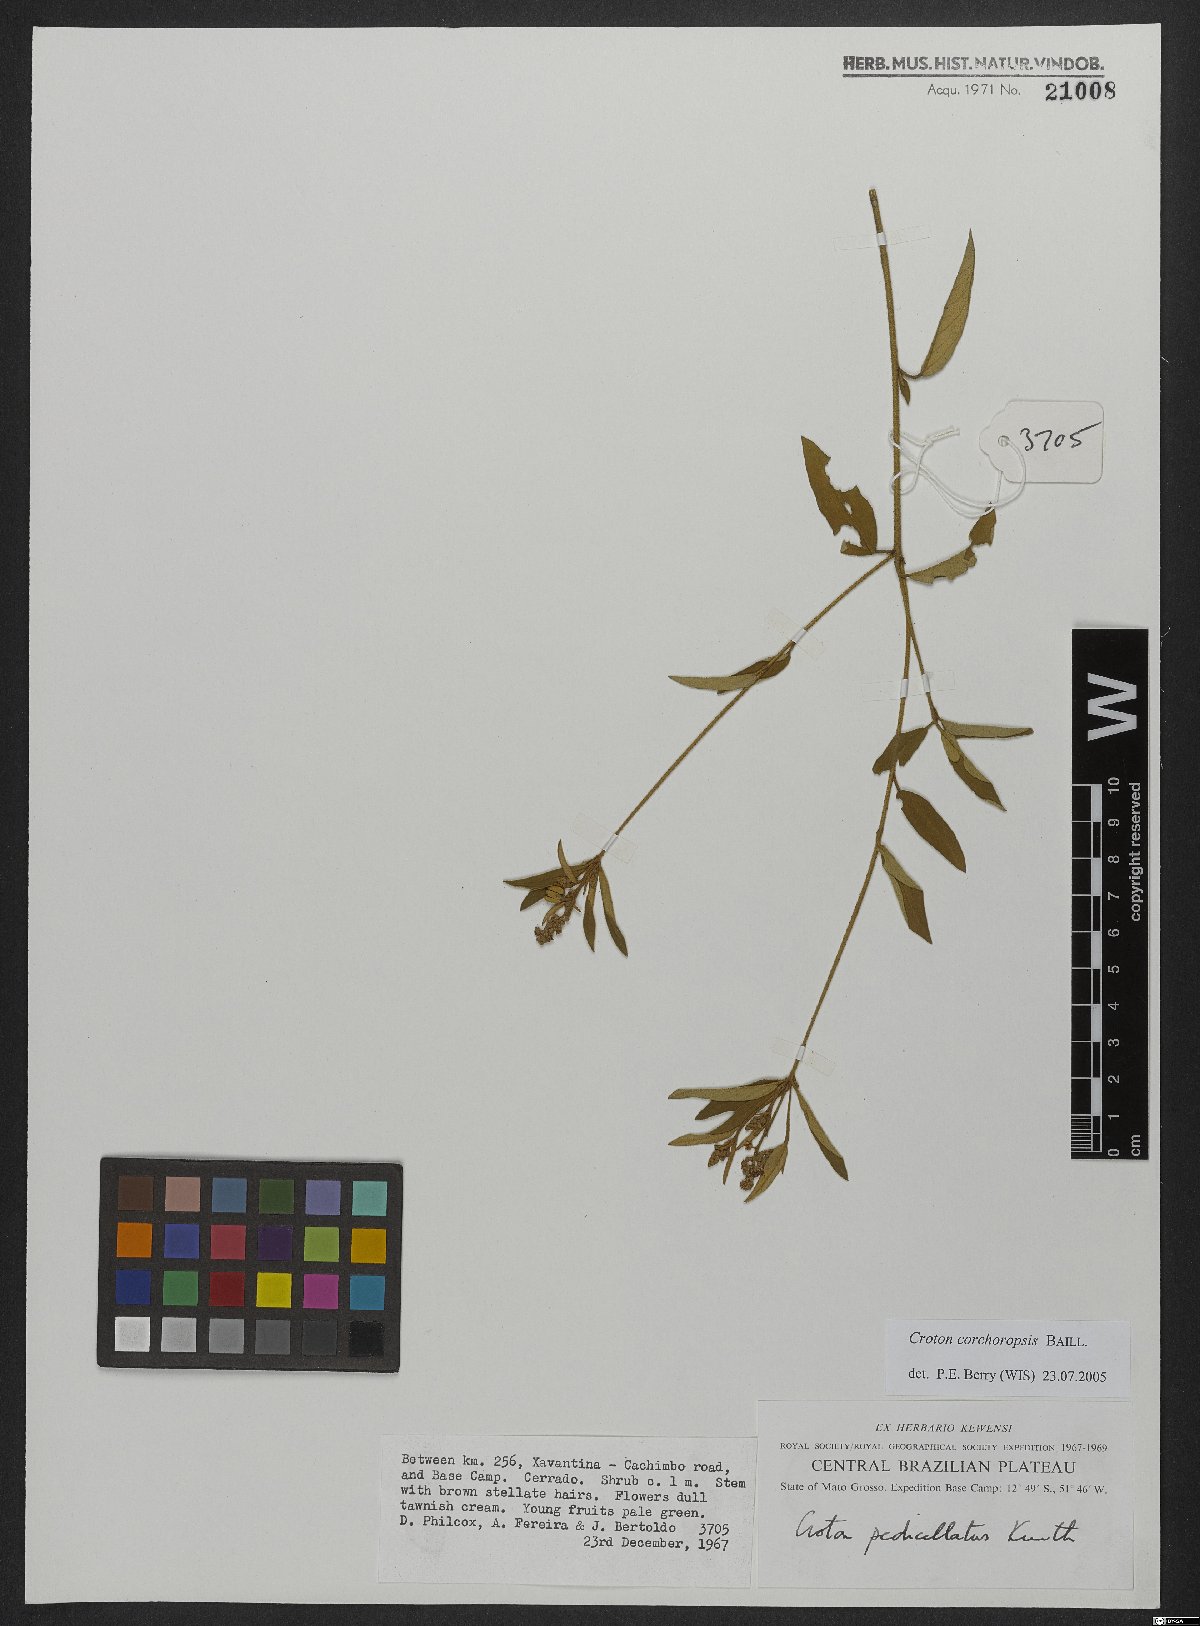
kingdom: Plantae
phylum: Tracheophyta
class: Magnoliopsida
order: Malpighiales
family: Euphorbiaceae
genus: Croton
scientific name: Croton corchoropsis
